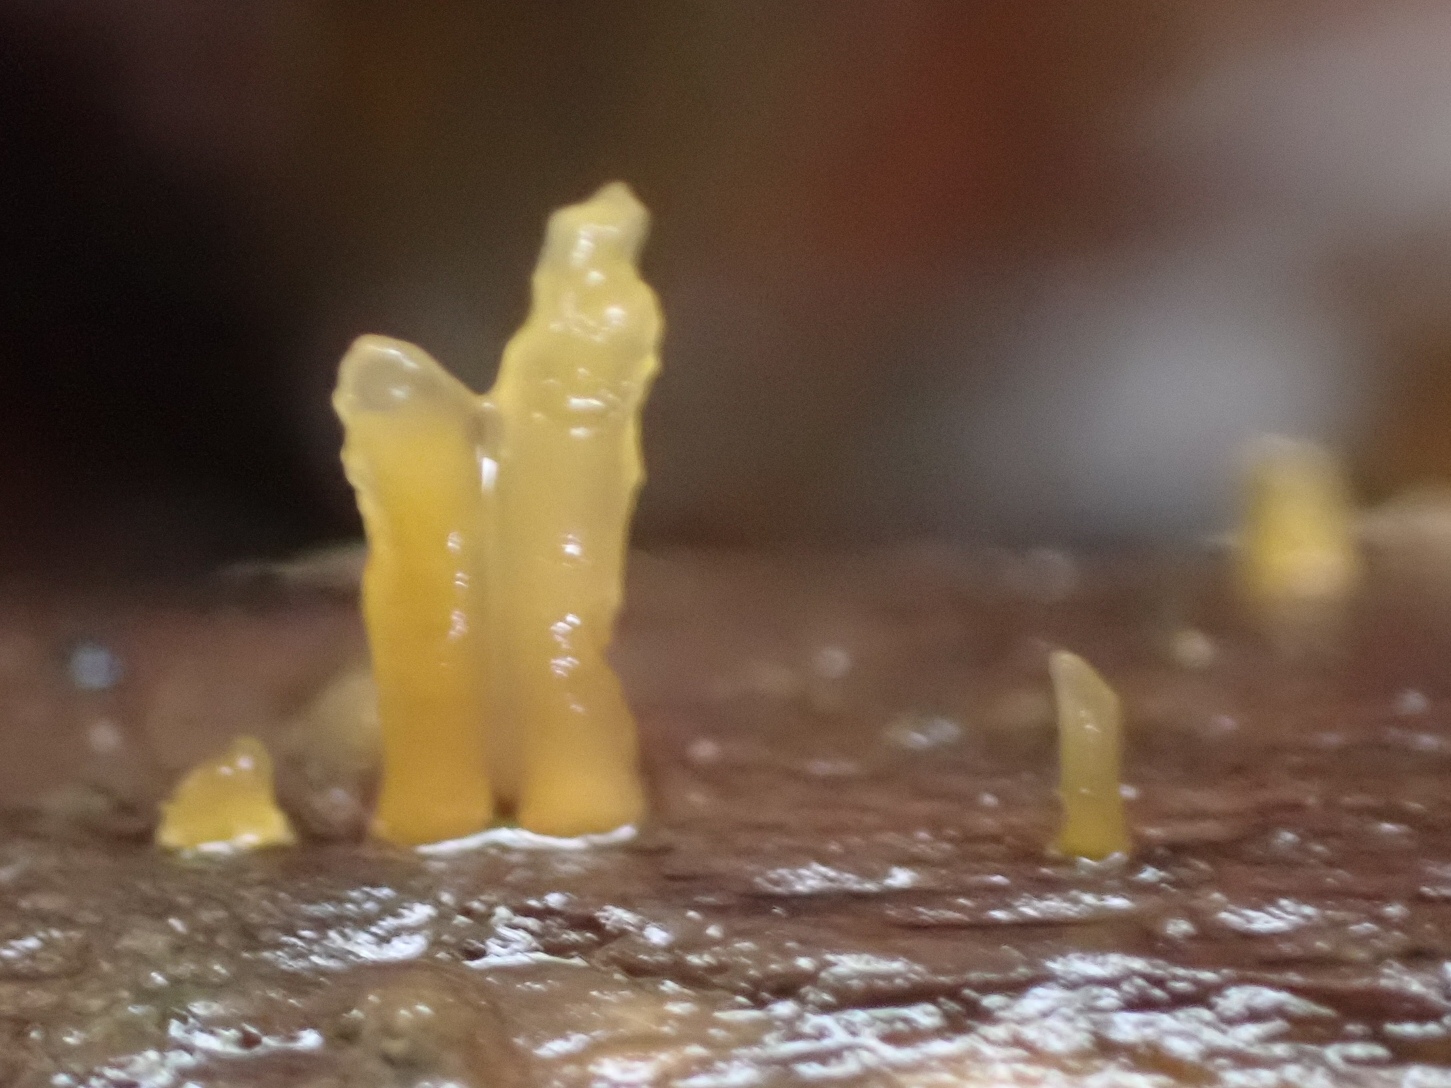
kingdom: Fungi
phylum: Basidiomycota
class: Dacrymycetes
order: Dacrymycetales
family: Dacrymycetaceae
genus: Calocera
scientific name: Calocera cornea
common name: liden guldgaffel
